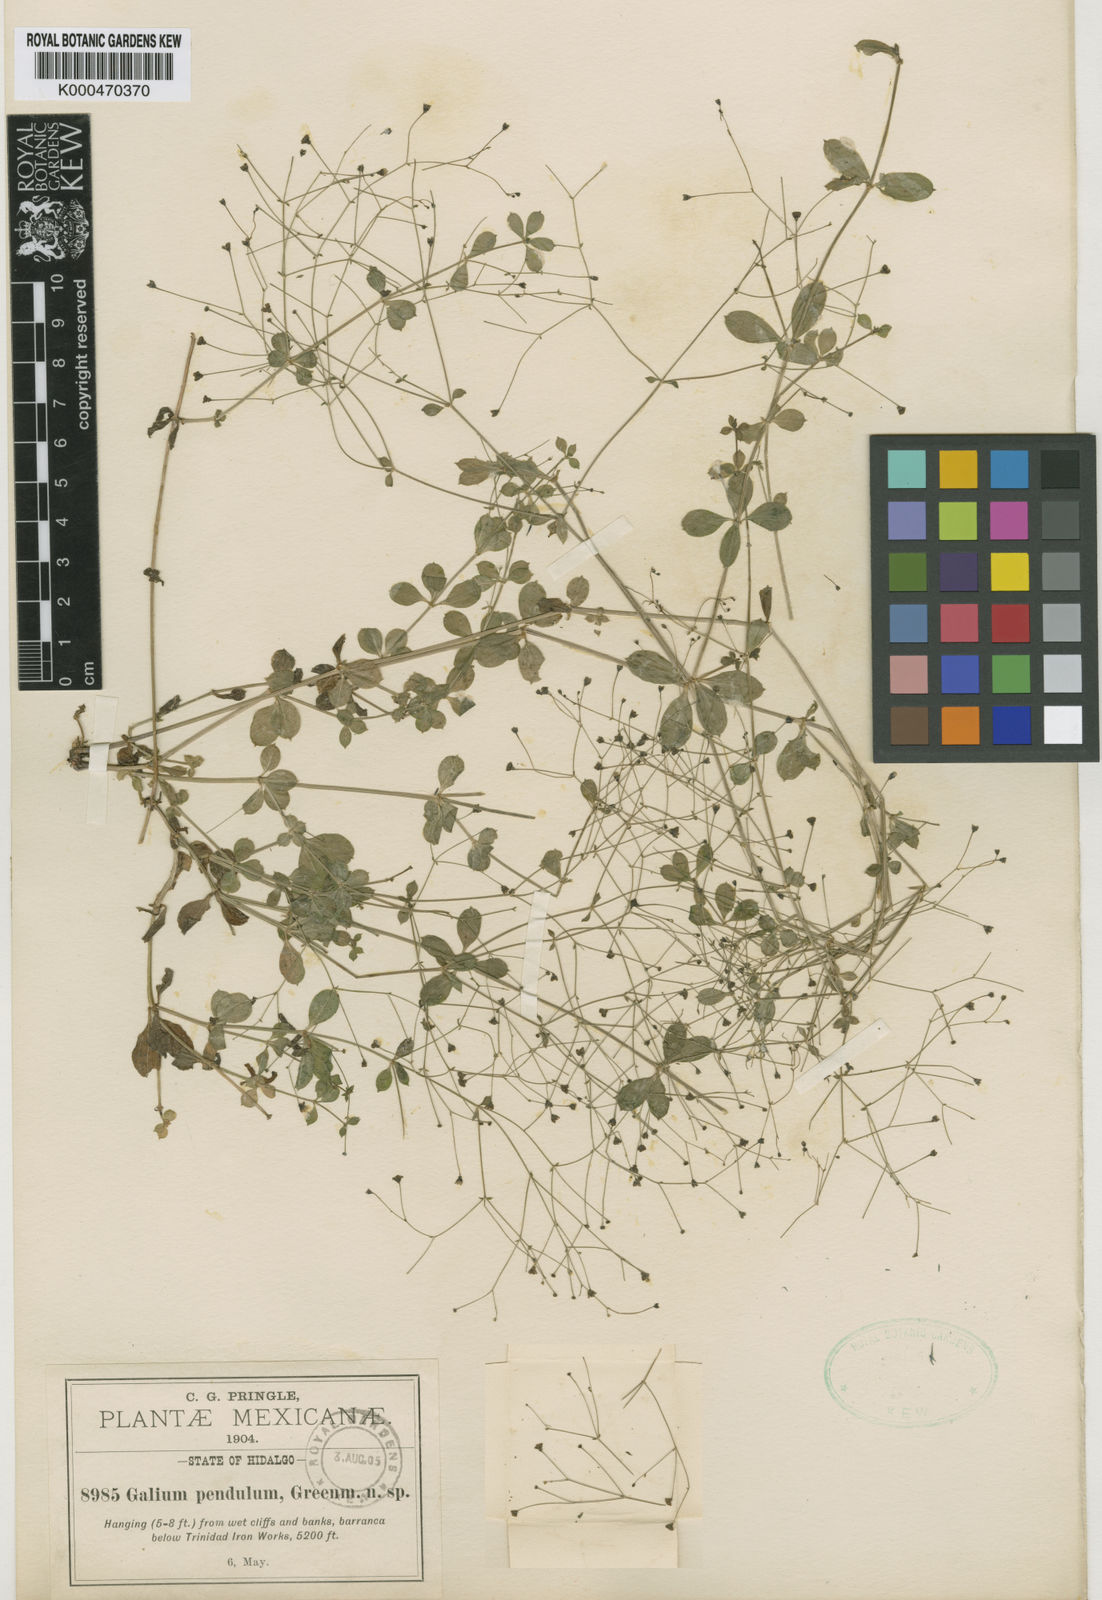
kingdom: Plantae
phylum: Tracheophyta
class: Magnoliopsida
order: Gentianales
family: Rubiaceae
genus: Galium
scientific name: Galium pendulum
